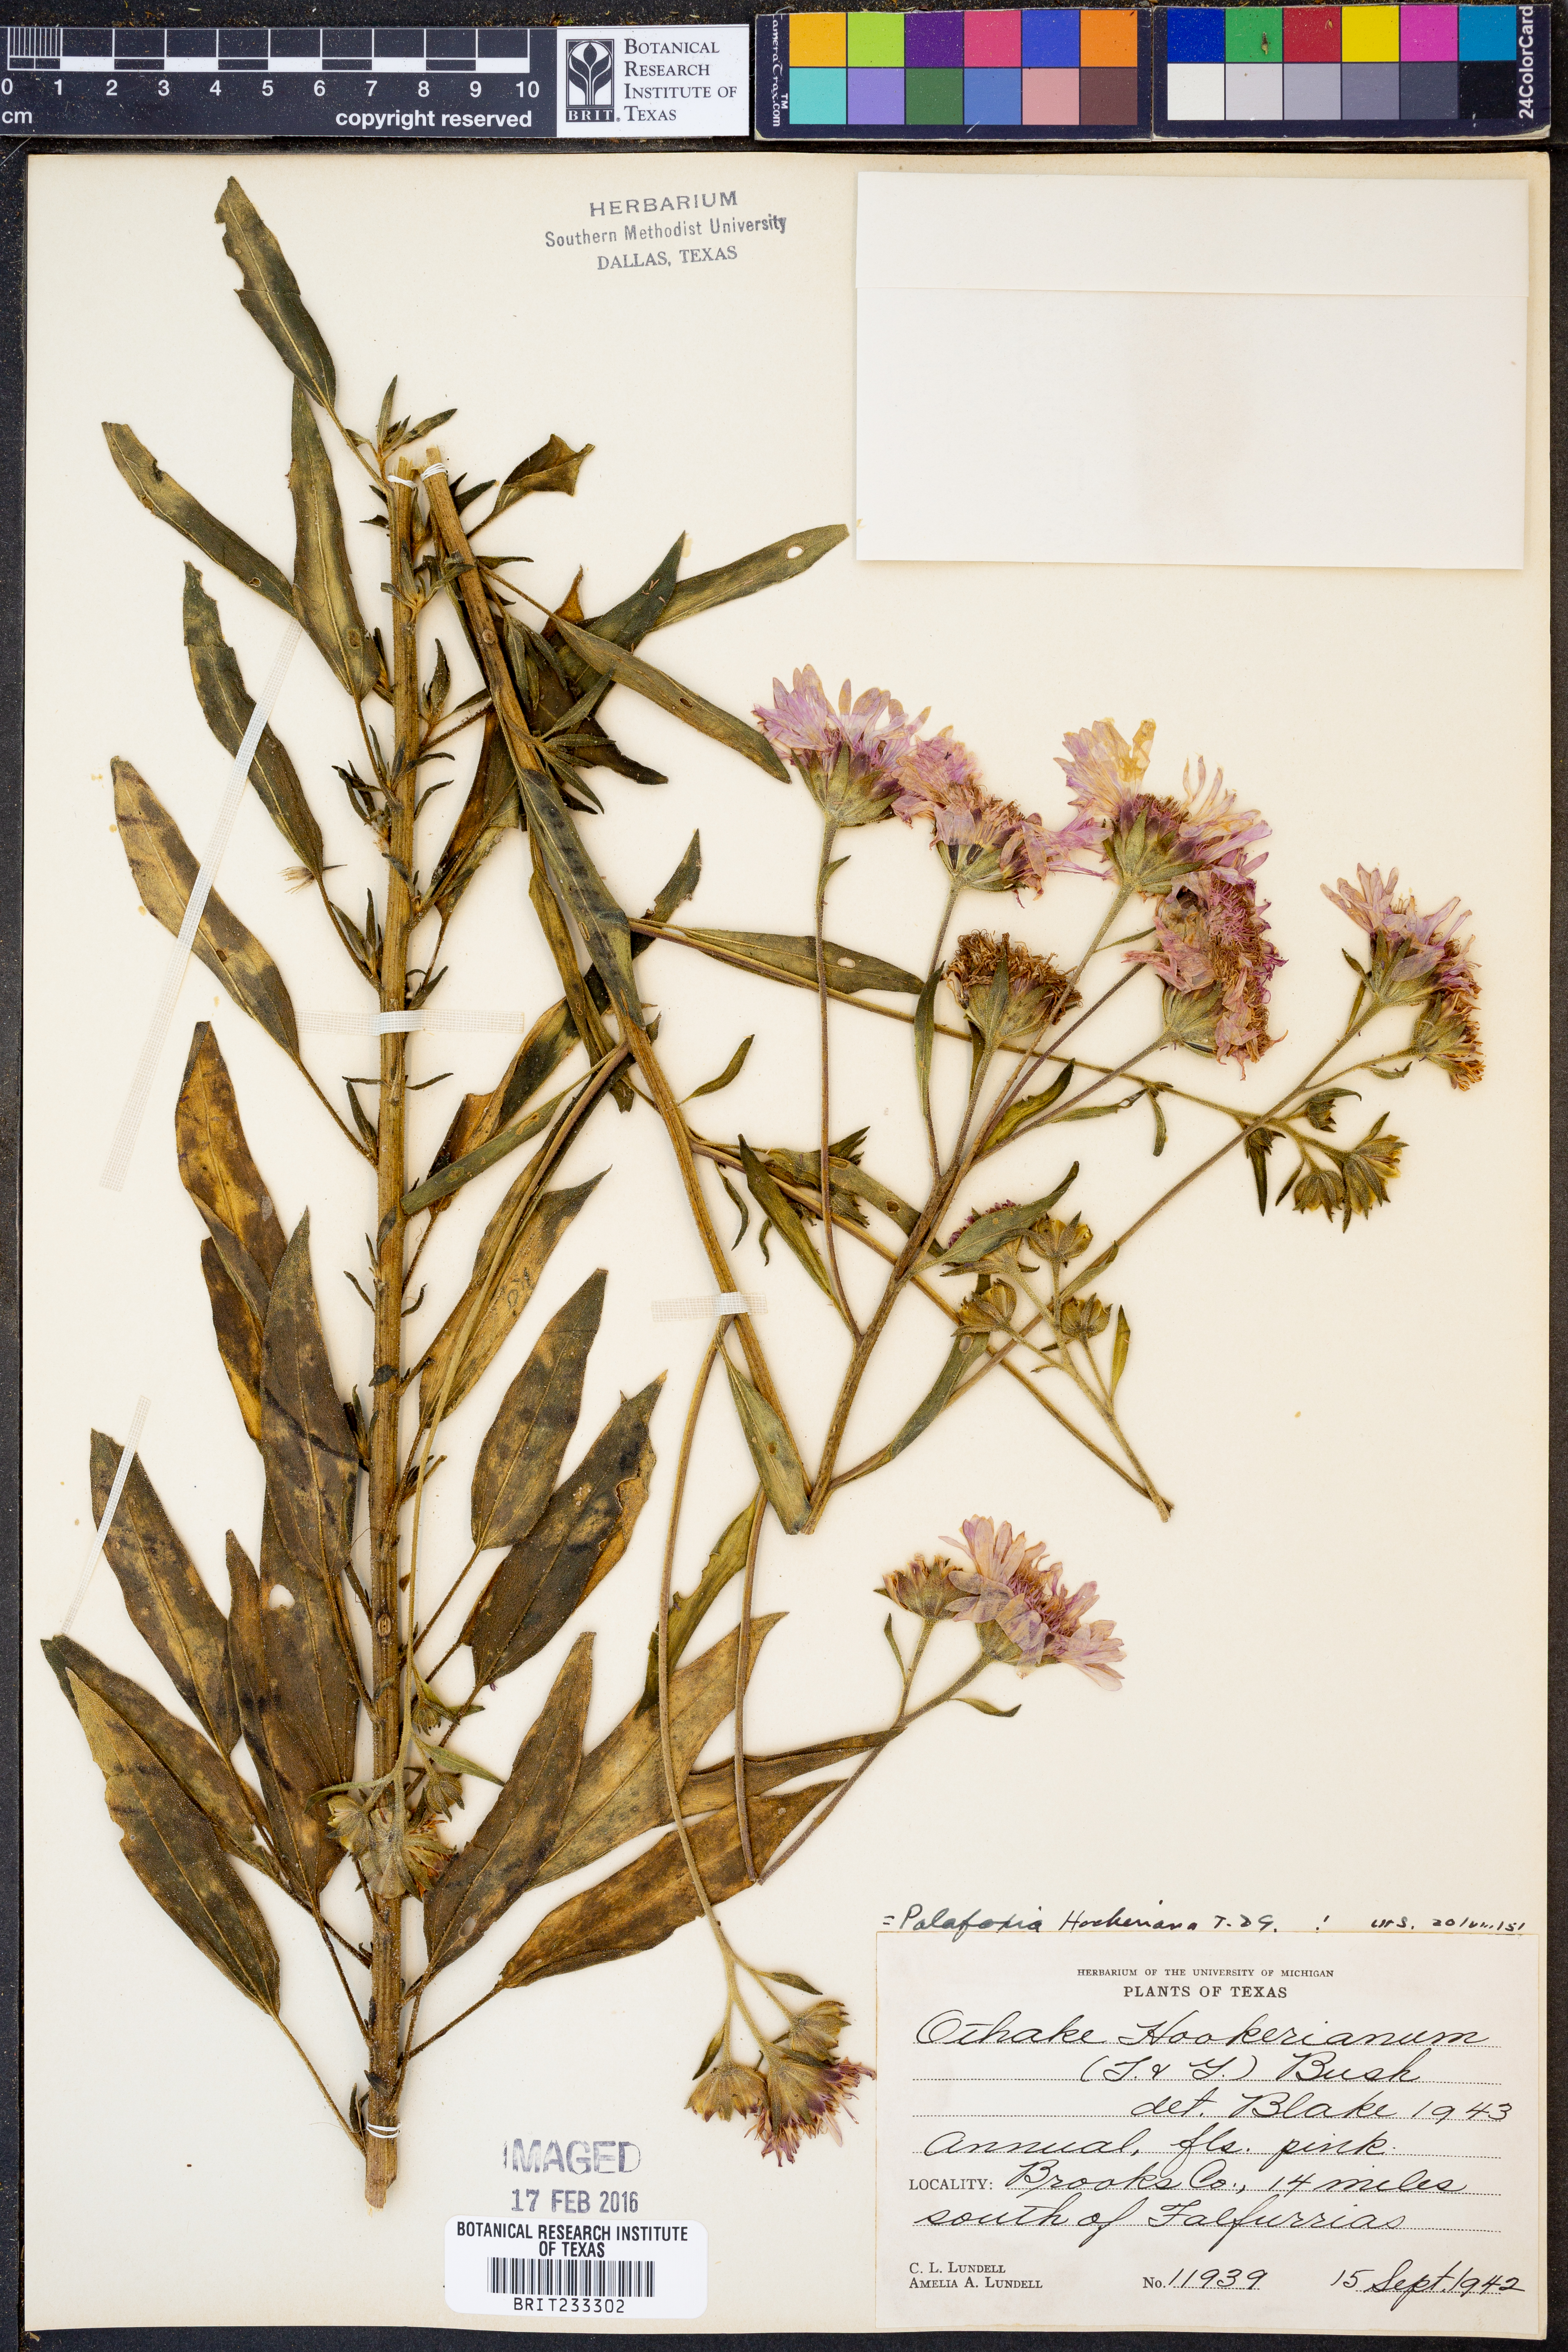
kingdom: Plantae
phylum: Tracheophyta
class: Magnoliopsida
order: Asterales
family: Asteraceae
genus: Palafoxia
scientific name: Palafoxia hookeriana
